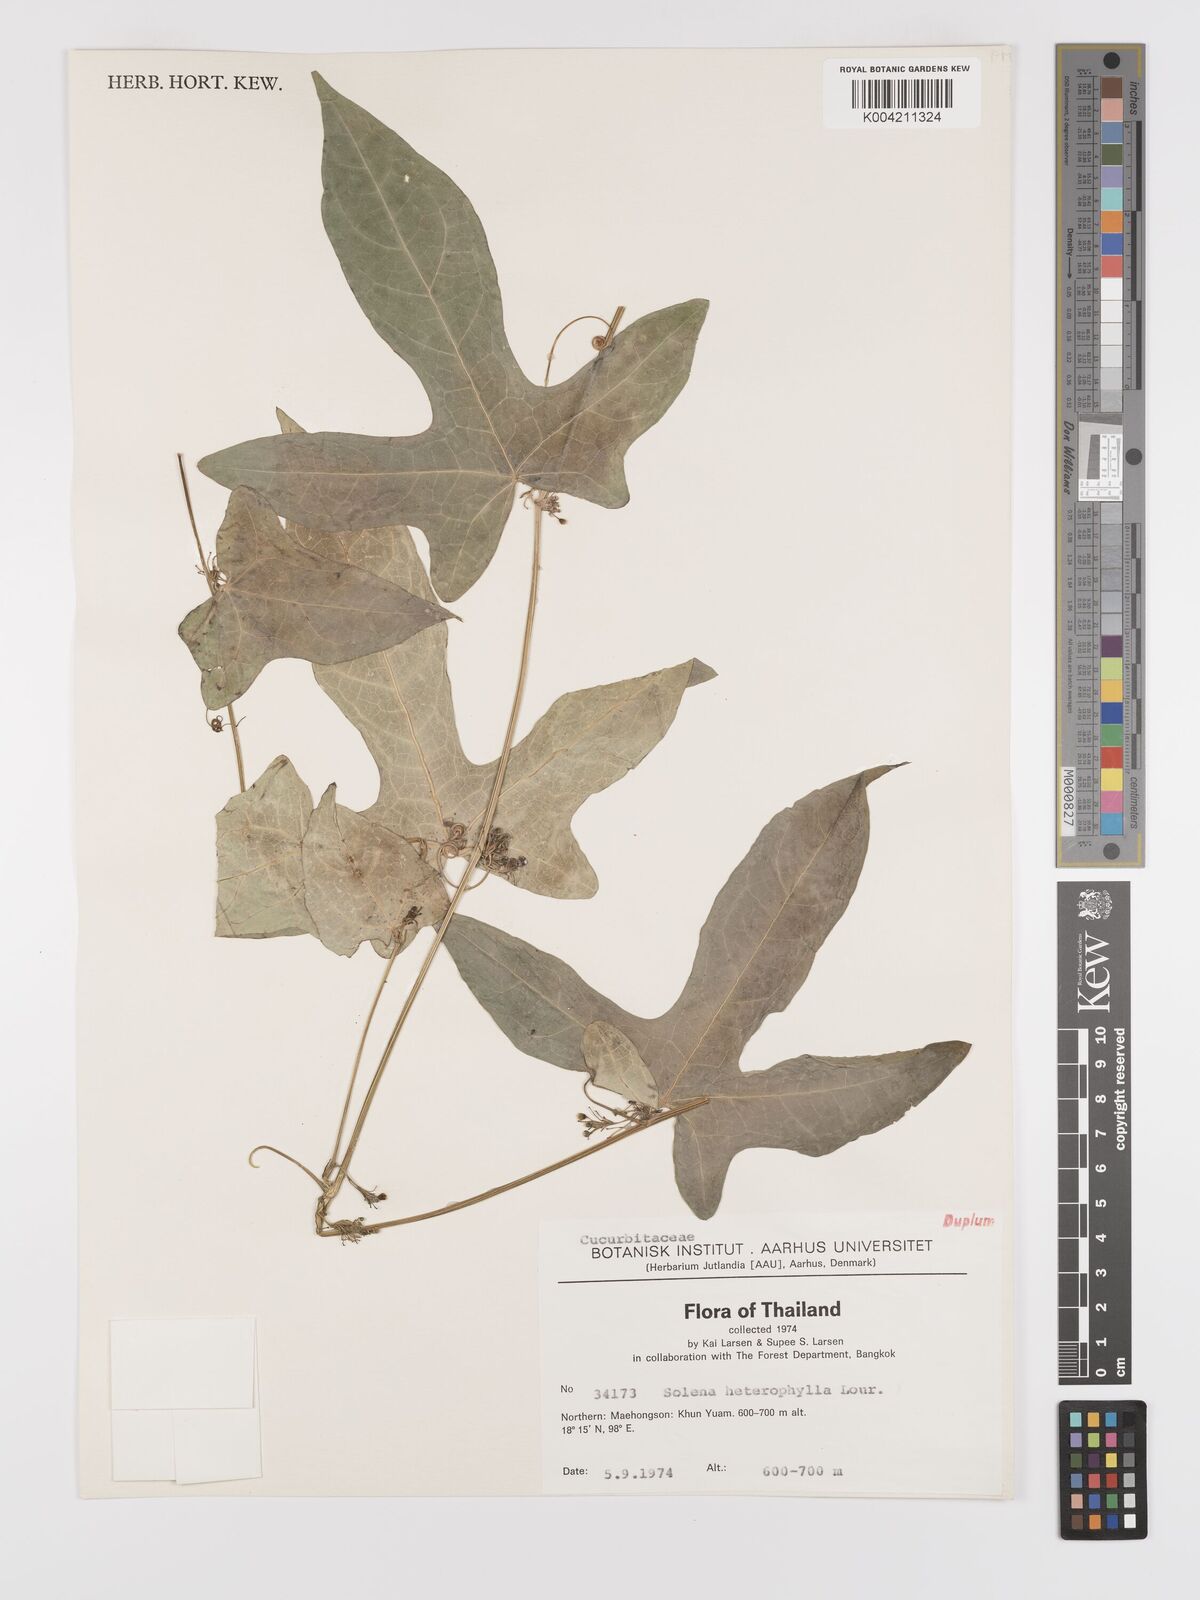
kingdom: Plantae
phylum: Tracheophyta
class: Magnoliopsida
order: Cucurbitales
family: Cucurbitaceae
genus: Solena
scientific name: Solena amplexicaulis
